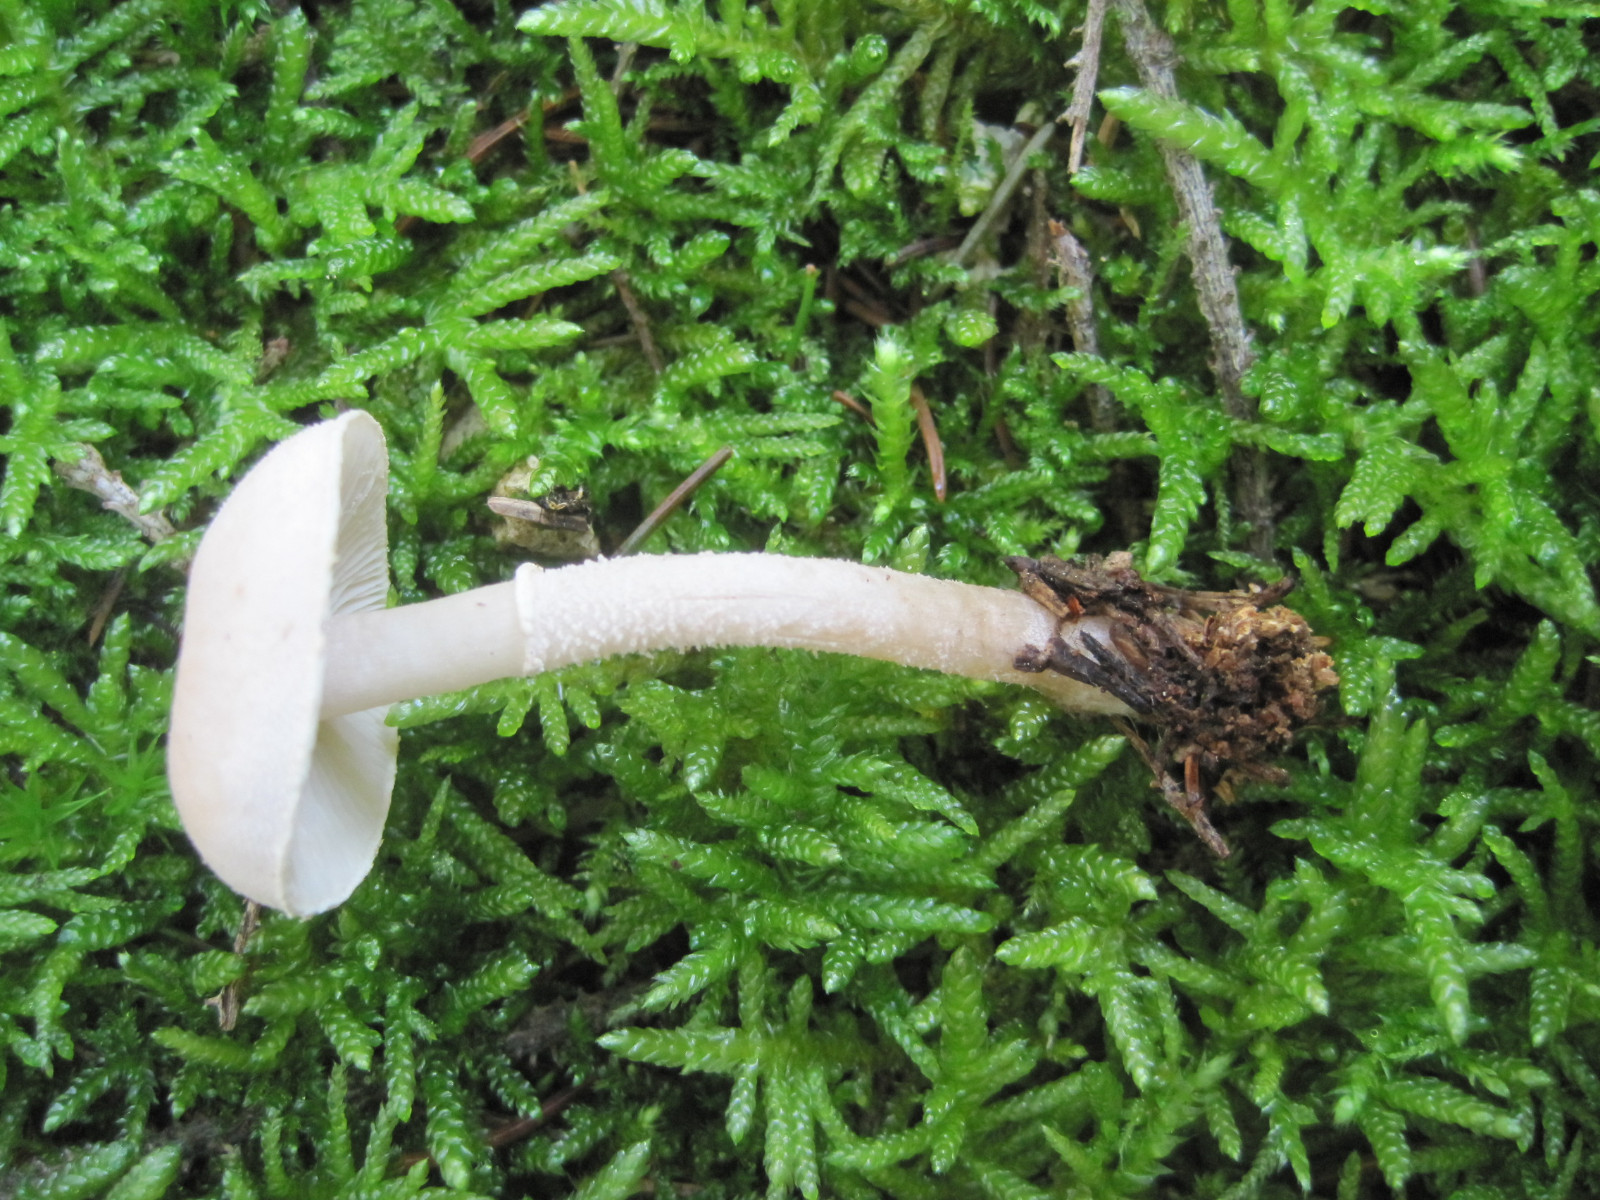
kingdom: Fungi
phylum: Basidiomycota
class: Agaricomycetes
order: Agaricales
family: Tricholomataceae
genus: Cystoderma
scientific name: Cystoderma carcharias
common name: rødgrå grynhat
